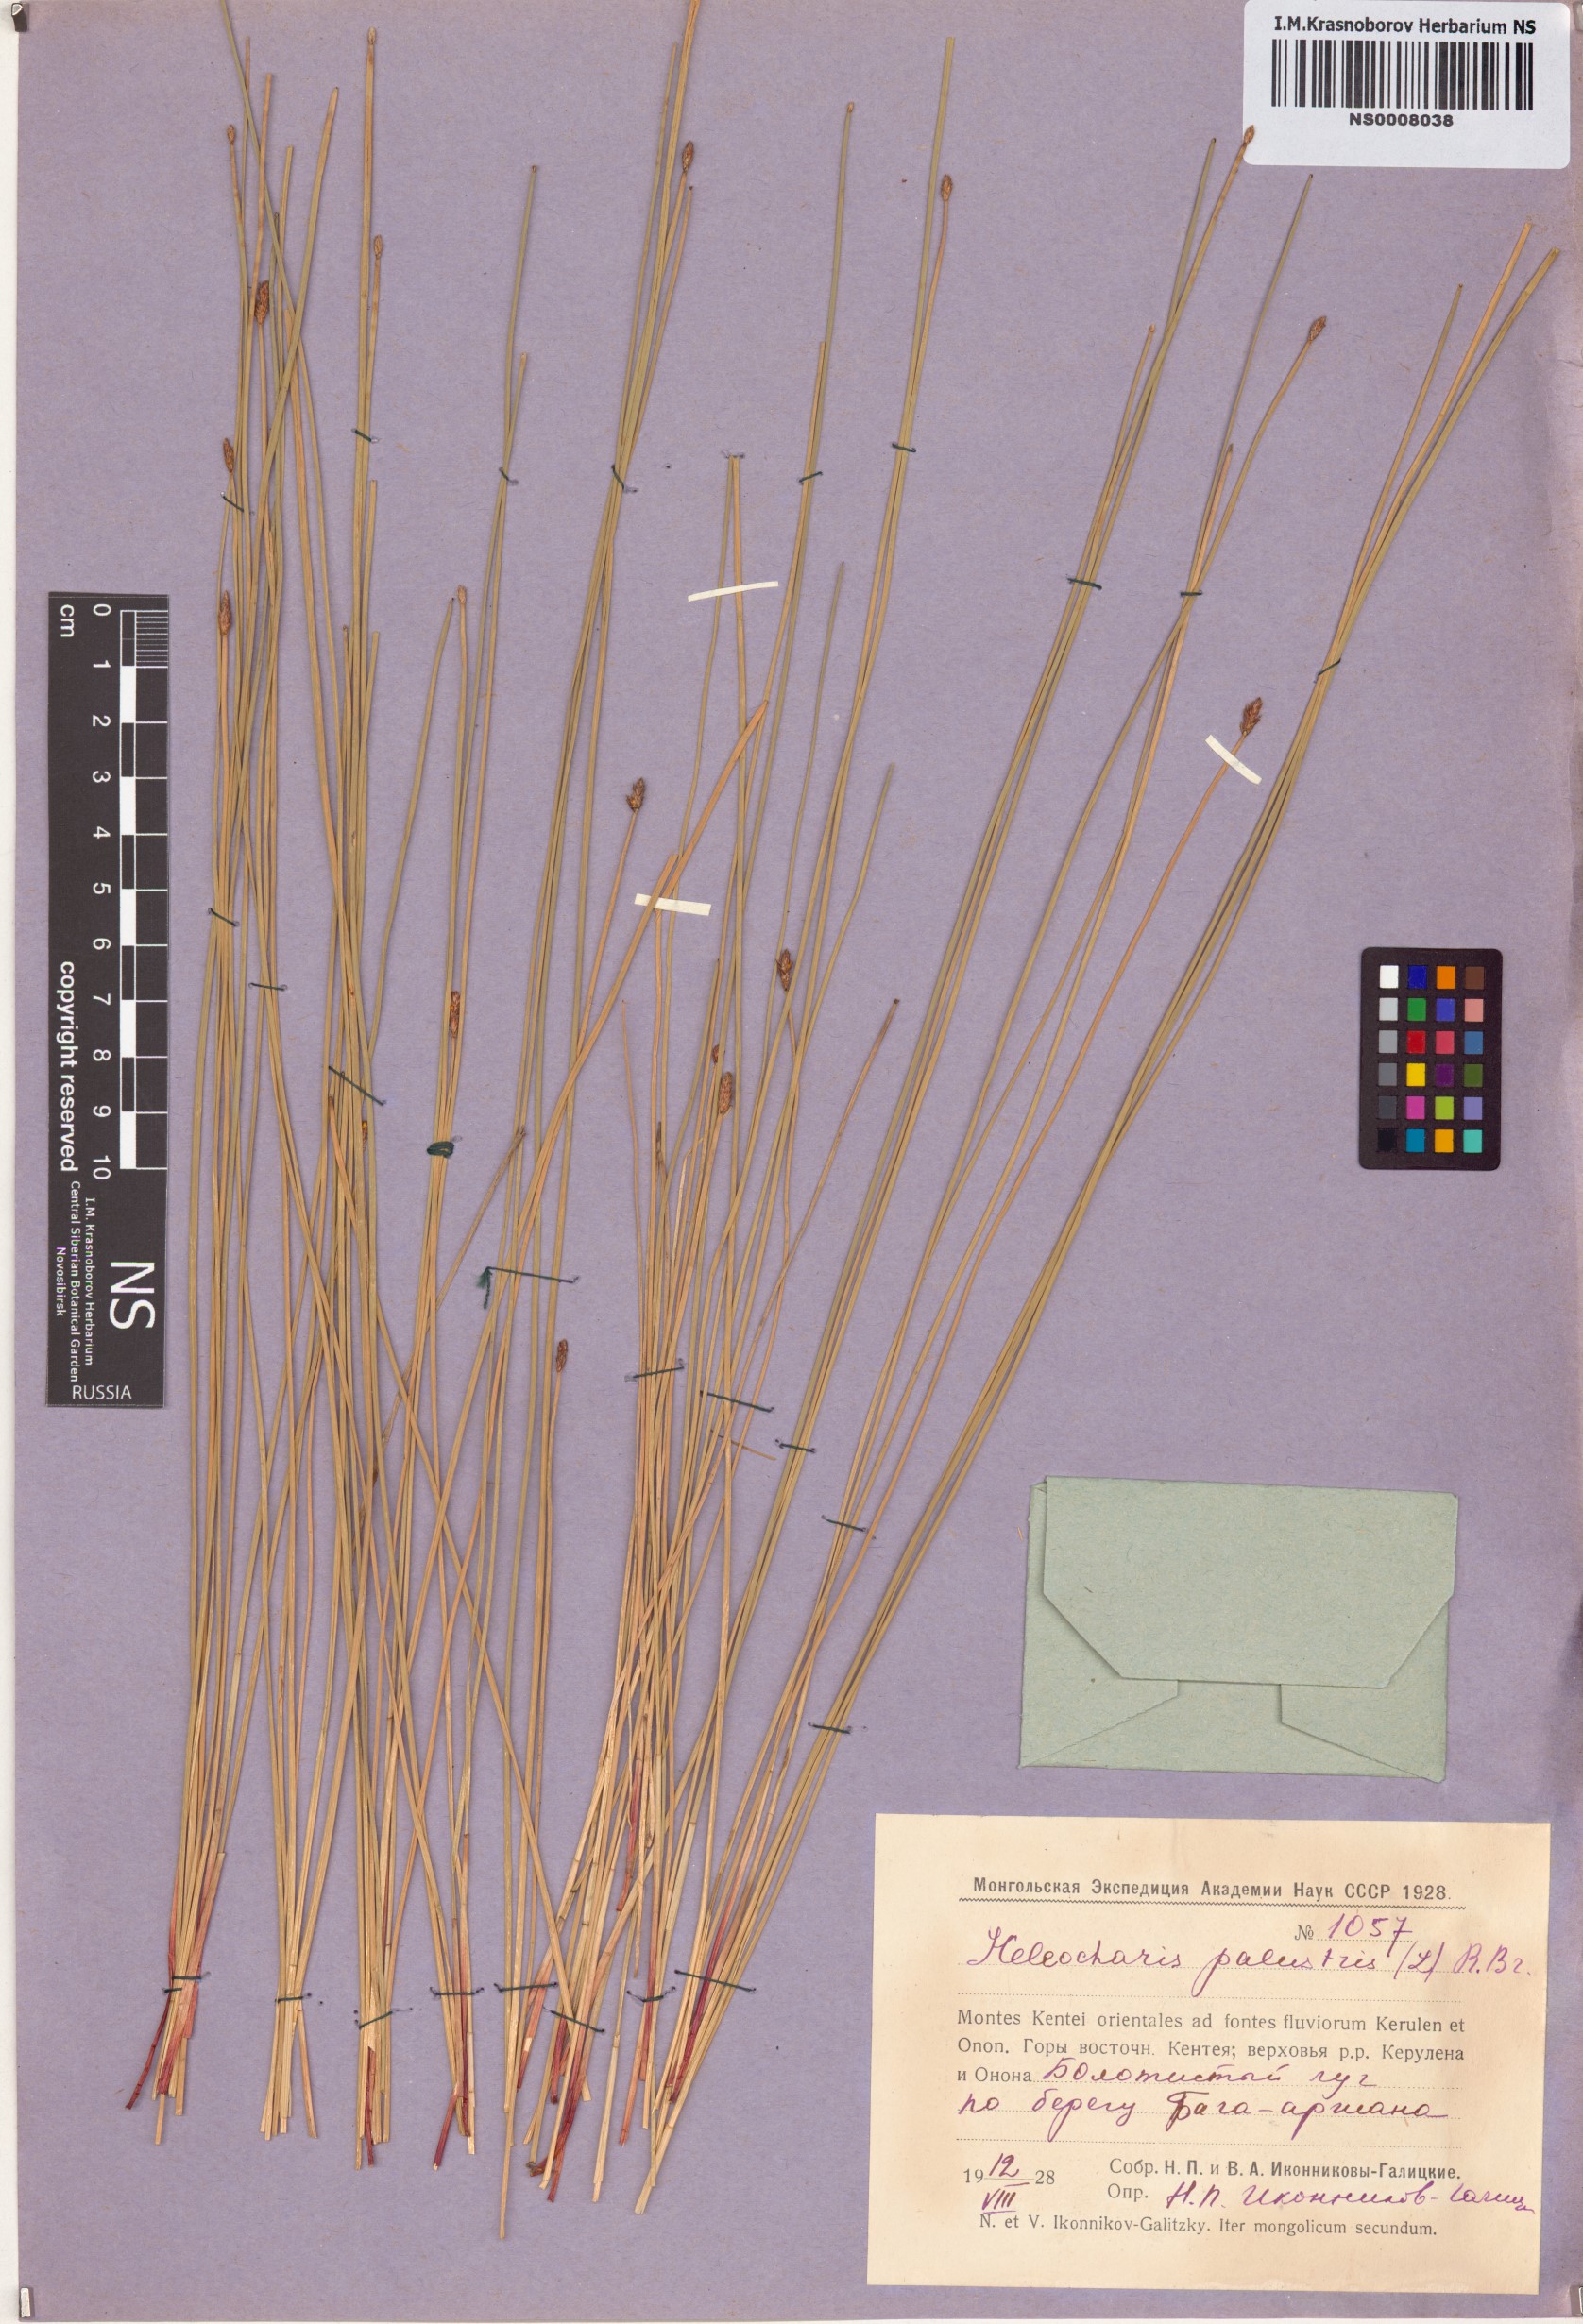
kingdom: Plantae
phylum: Tracheophyta
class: Liliopsida
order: Poales
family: Cyperaceae
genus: Eleocharis
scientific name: Eleocharis palustris
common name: Common spike-rush
